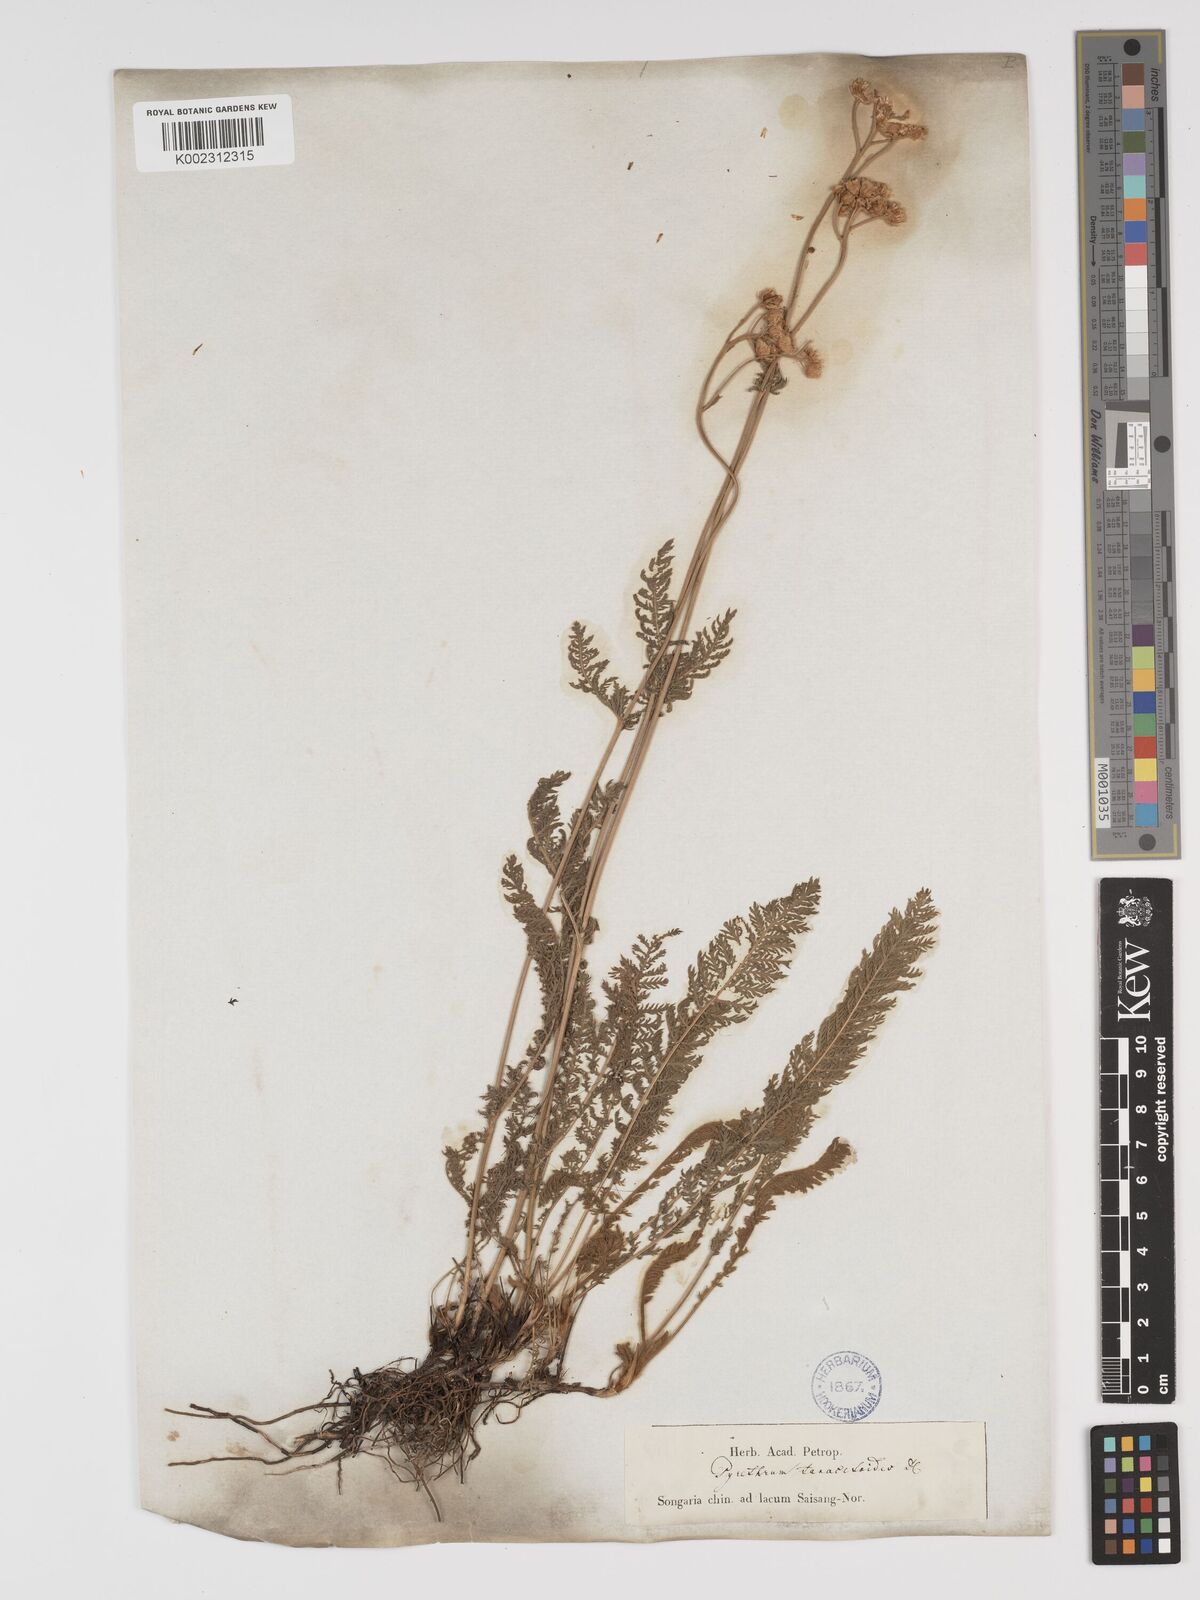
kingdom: Plantae
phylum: Tracheophyta
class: Magnoliopsida
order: Asterales
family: Asteraceae
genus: Tanacetum
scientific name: Tanacetum millefolium
